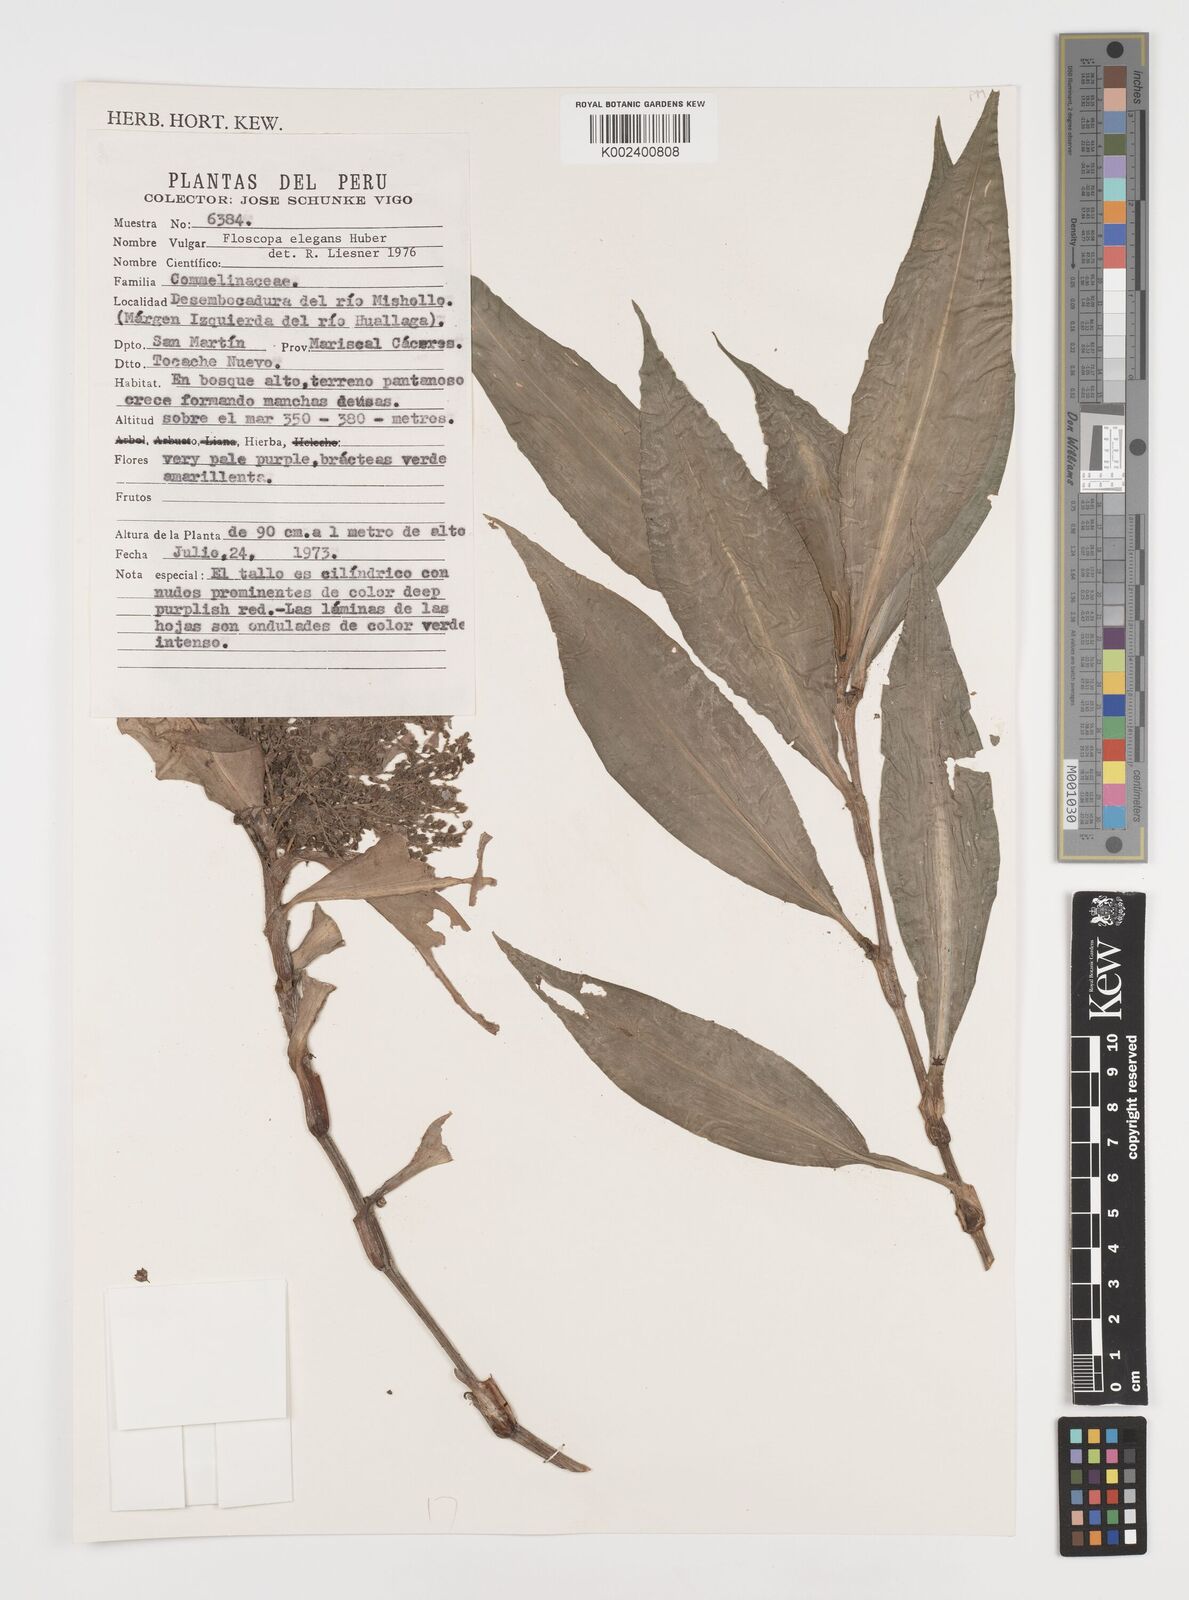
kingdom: Plantae
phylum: Tracheophyta
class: Liliopsida
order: Commelinales
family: Commelinaceae
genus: Floscopa
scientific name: Floscopa elegans
